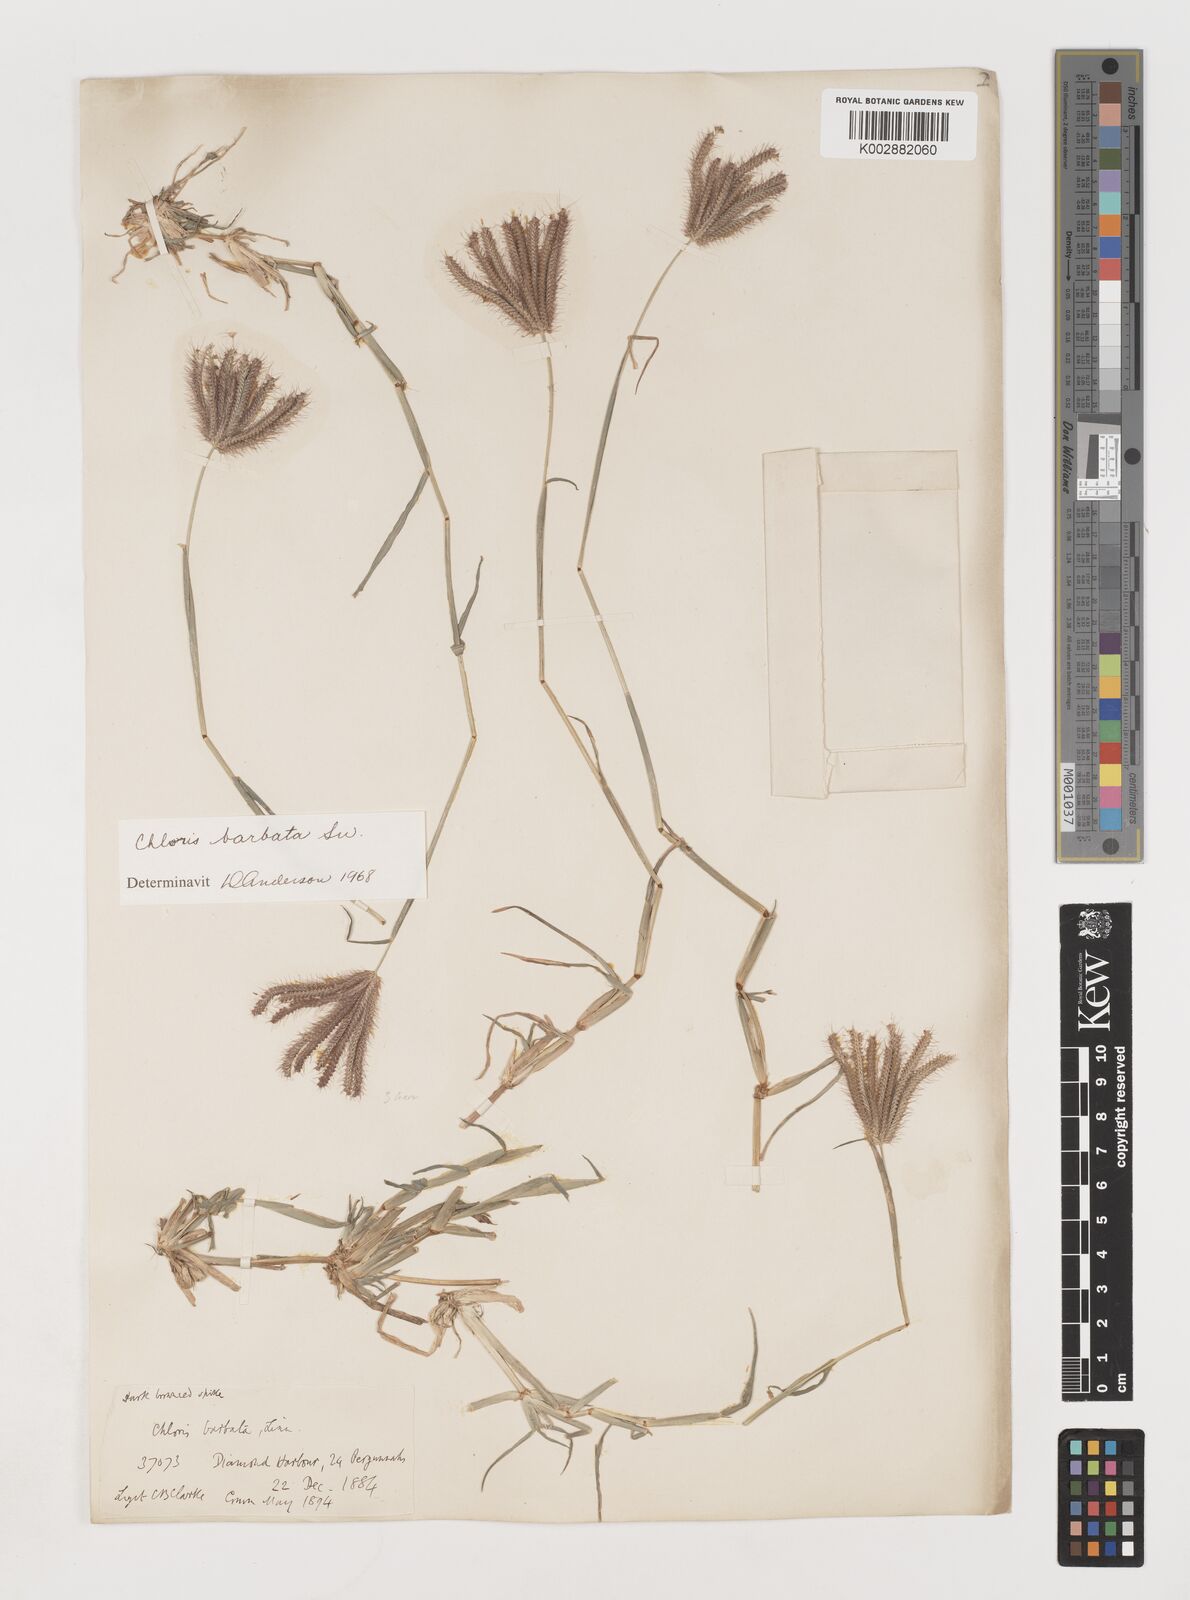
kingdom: Plantae
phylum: Tracheophyta
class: Liliopsida
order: Poales
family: Poaceae
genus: Chloris
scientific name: Chloris barbata
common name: Swollen fingergrass
